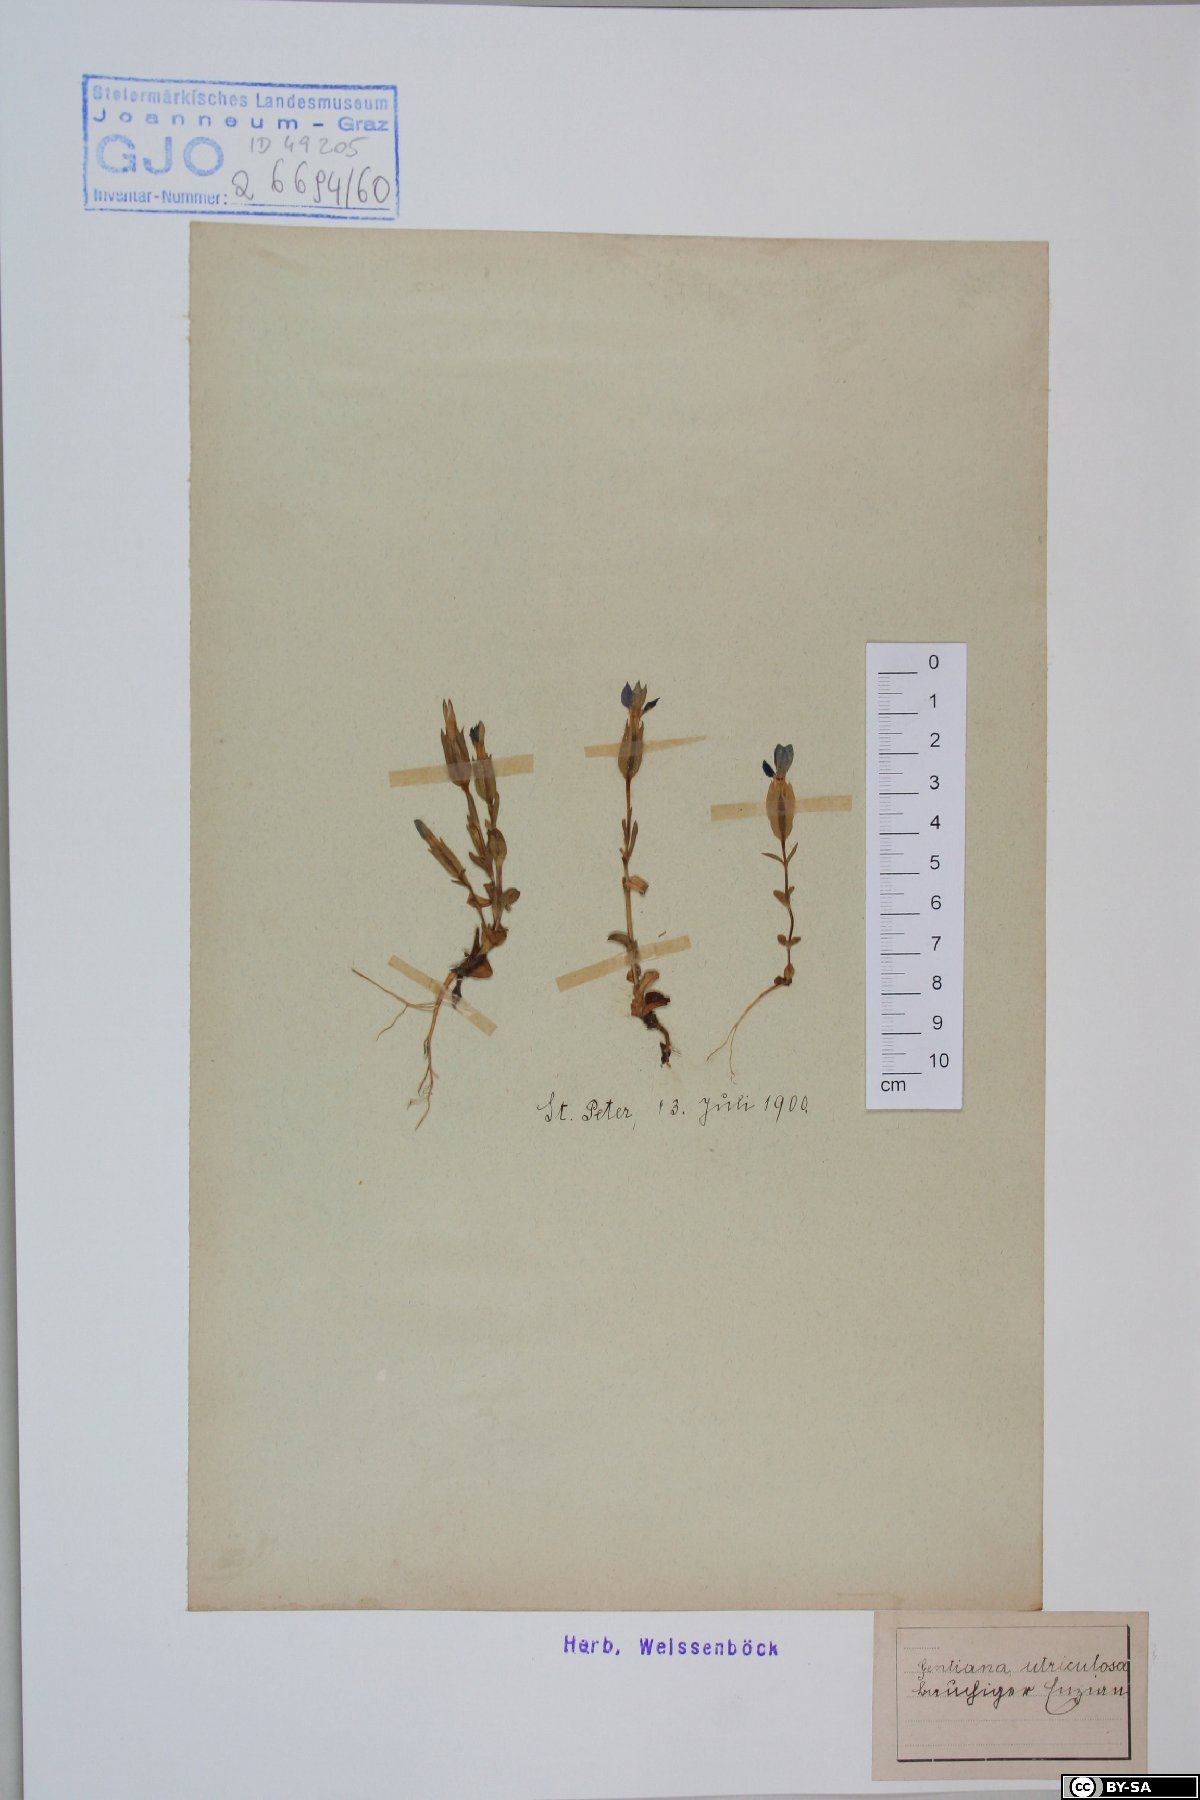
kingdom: Plantae
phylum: Tracheophyta
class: Magnoliopsida
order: Gentianales
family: Gentianaceae
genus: Gentiana
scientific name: Gentiana utriculosa
